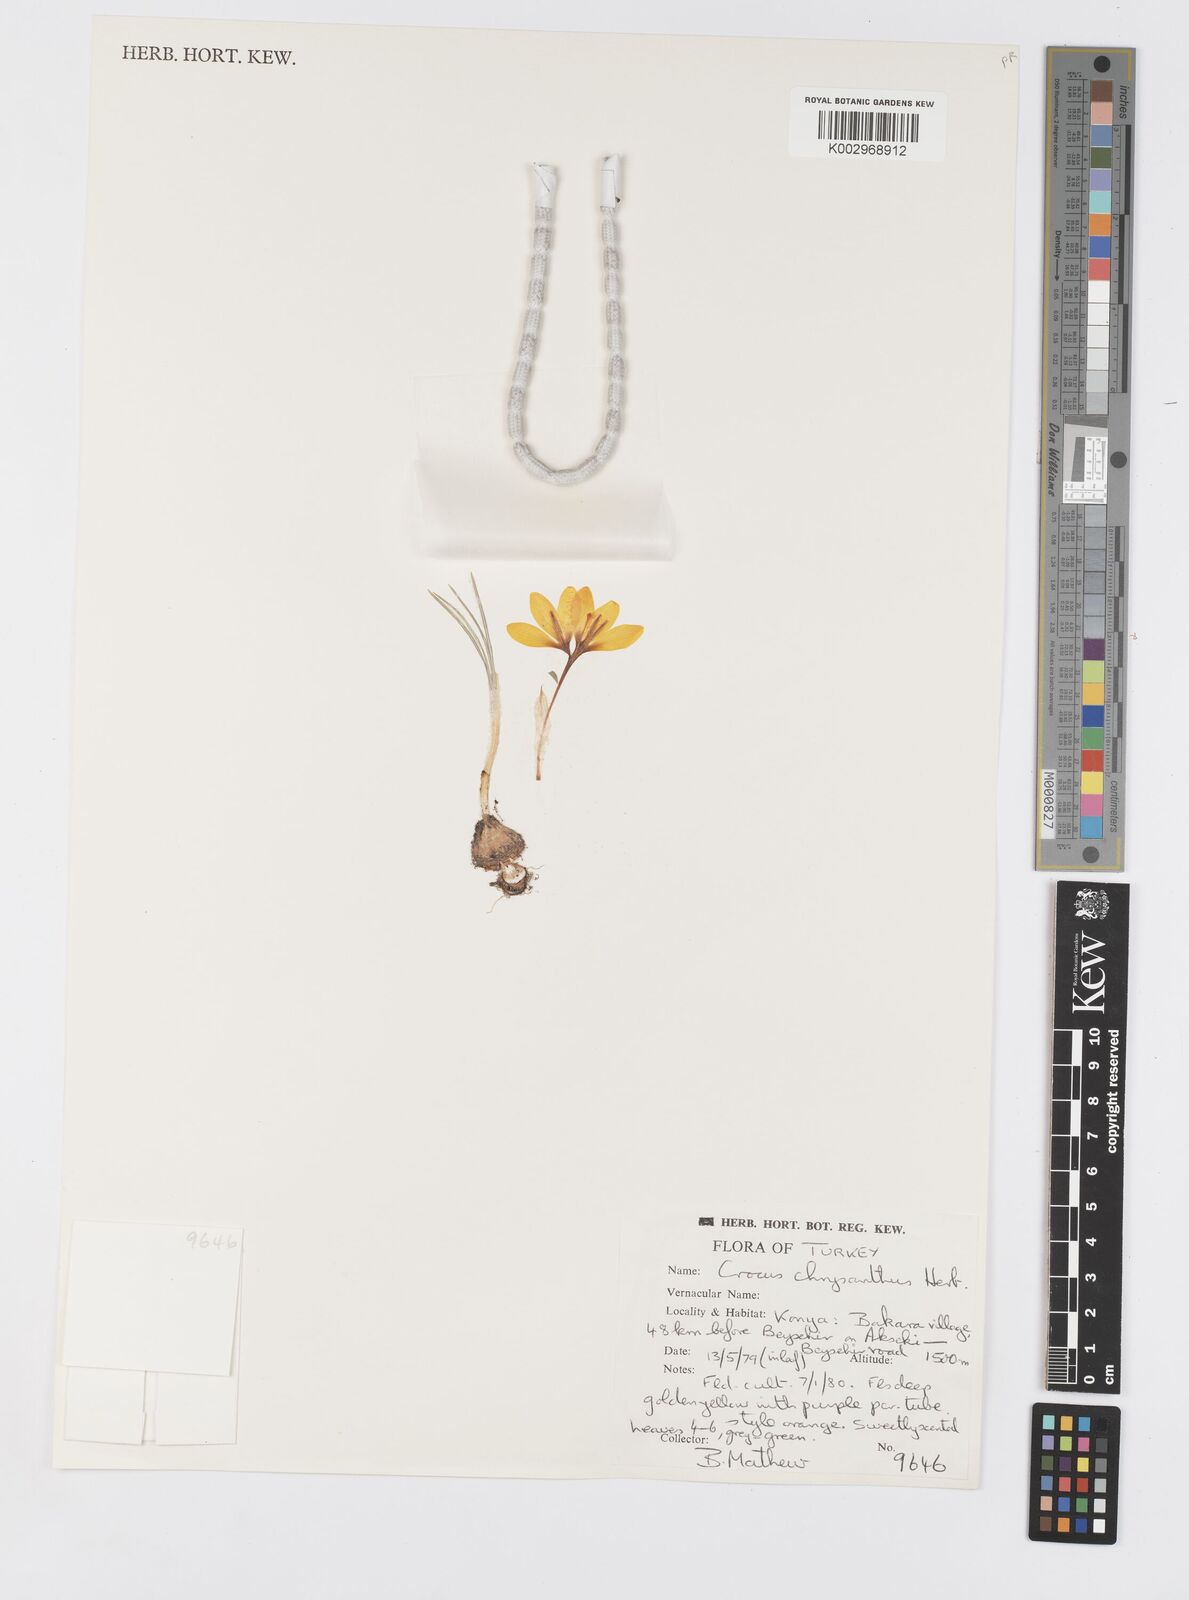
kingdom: Plantae
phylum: Tracheophyta
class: Liliopsida
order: Asparagales
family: Iridaceae
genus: Crocus
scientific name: Crocus chrysanthus
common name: Golden crocus
